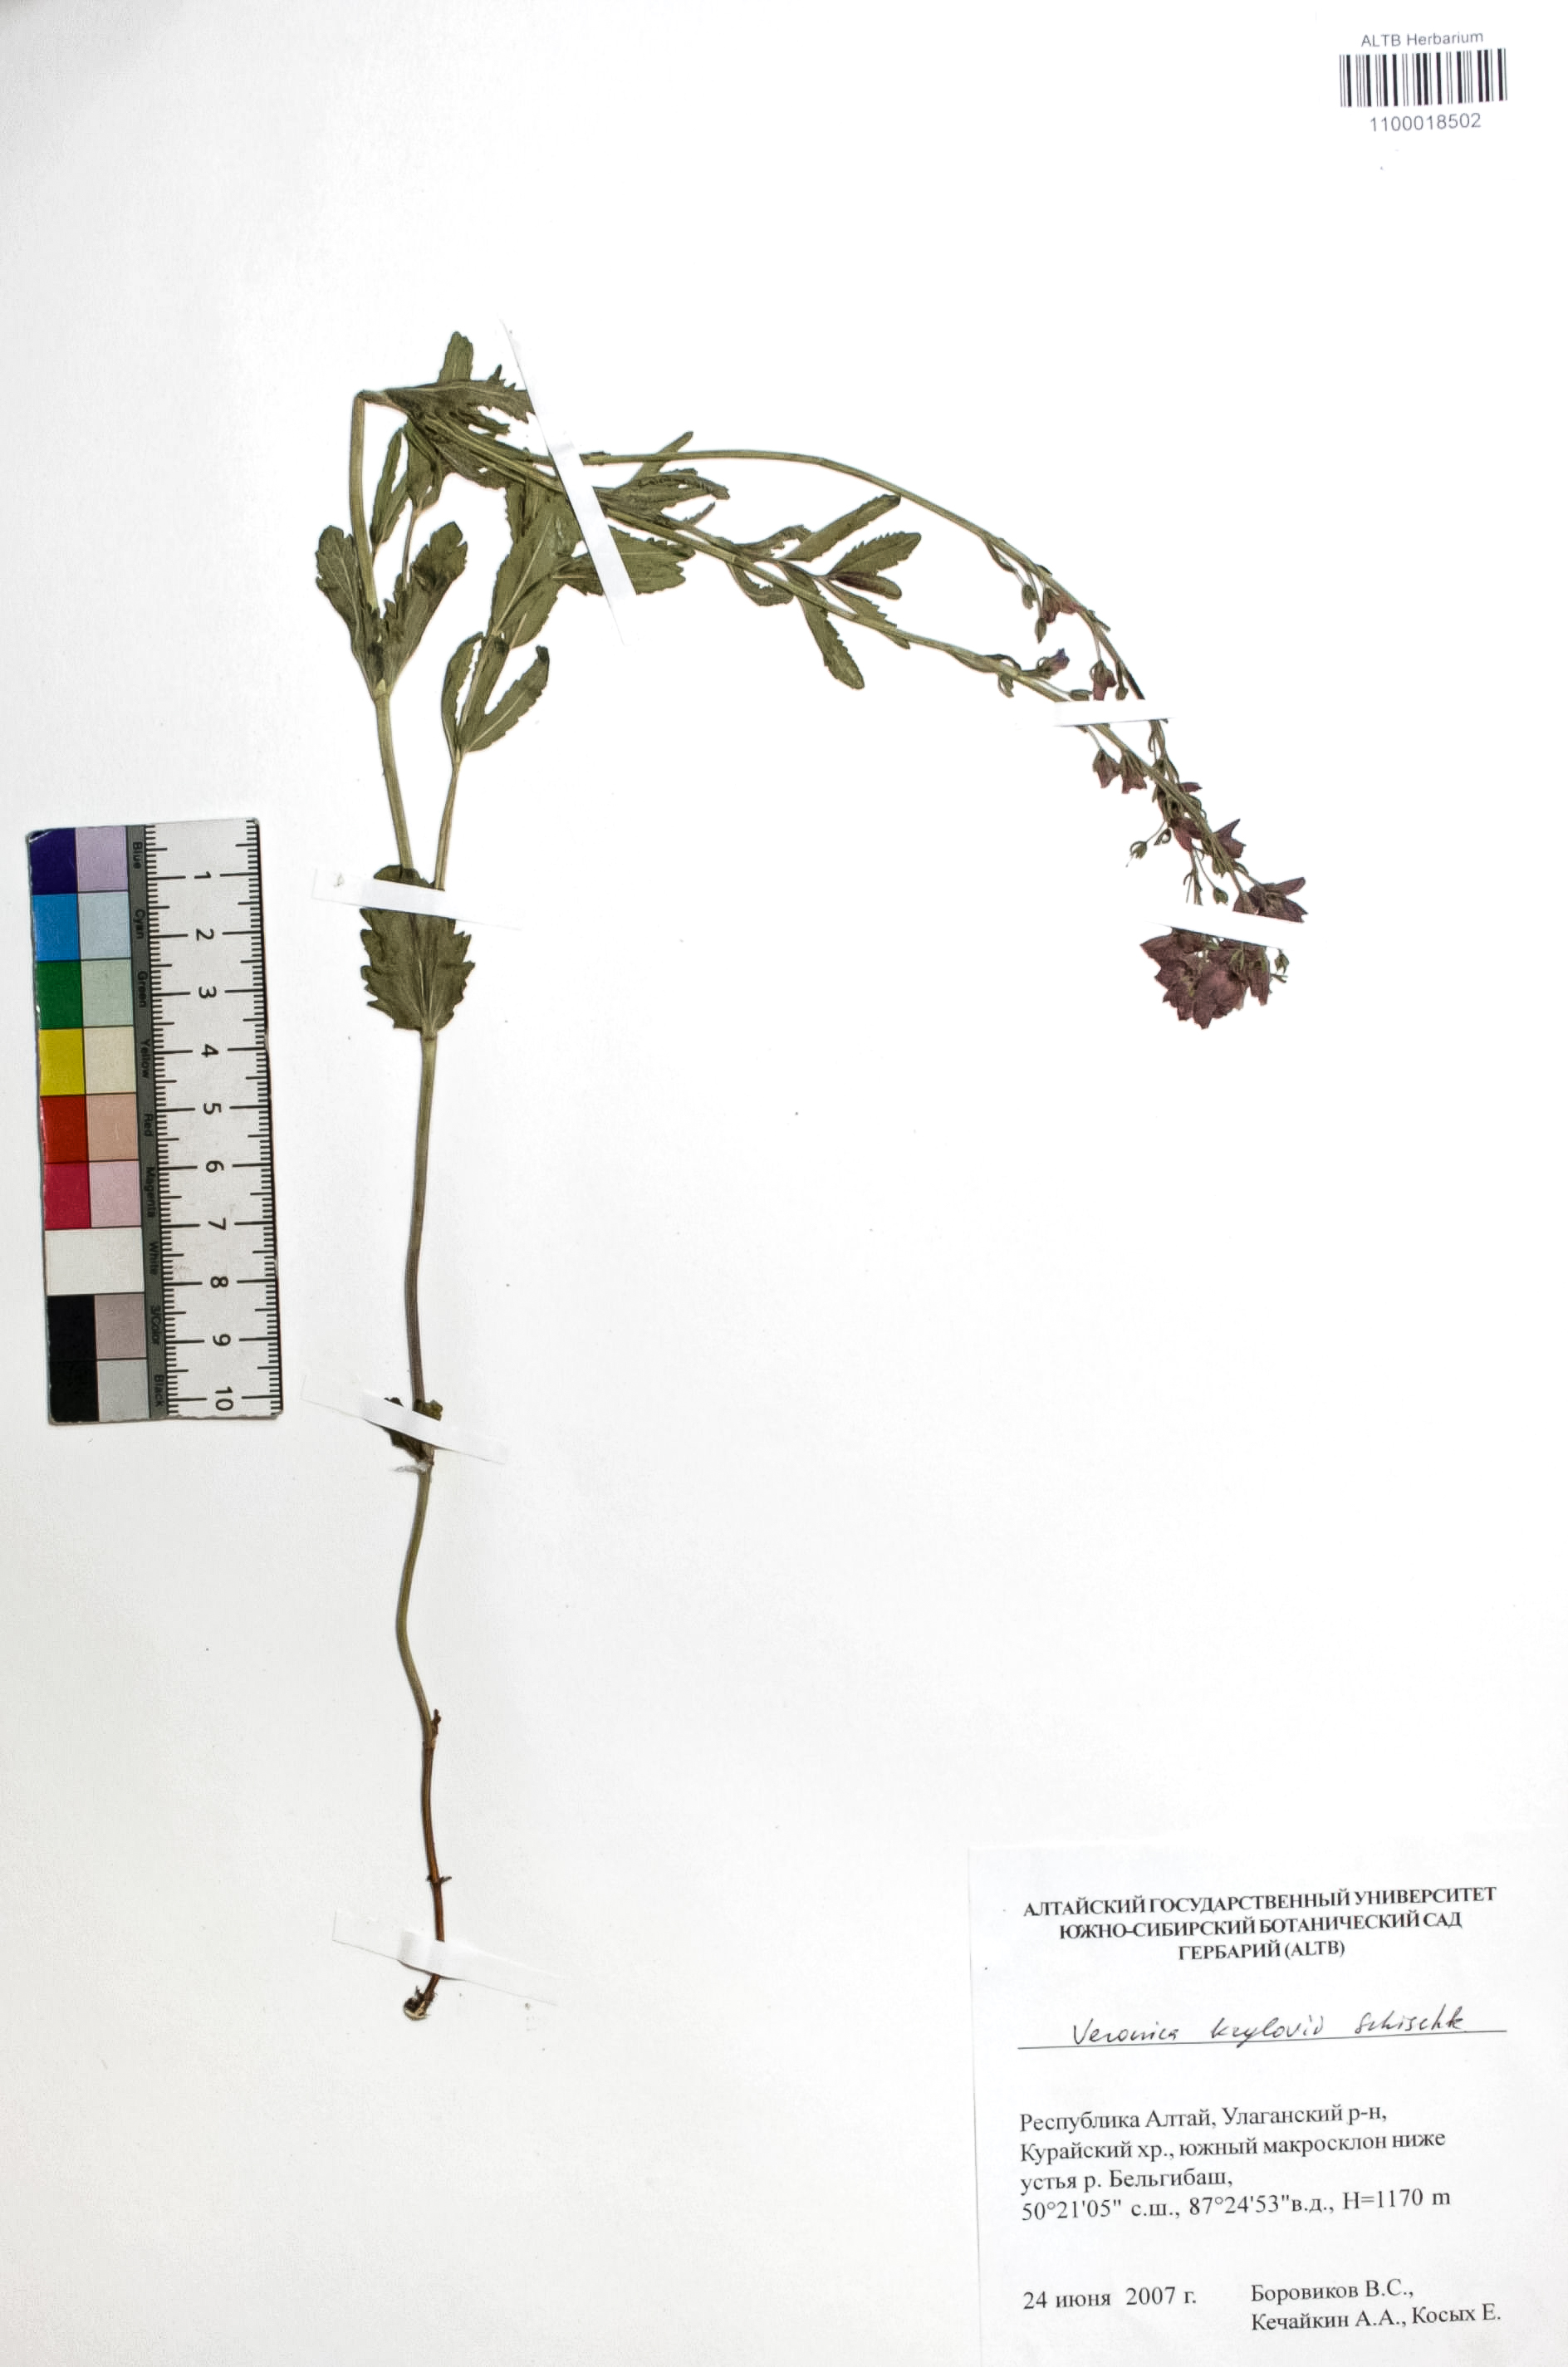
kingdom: Plantae
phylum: Tracheophyta
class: Magnoliopsida
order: Lamiales
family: Plantaginaceae
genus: Veronica
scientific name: Veronica krylovii
